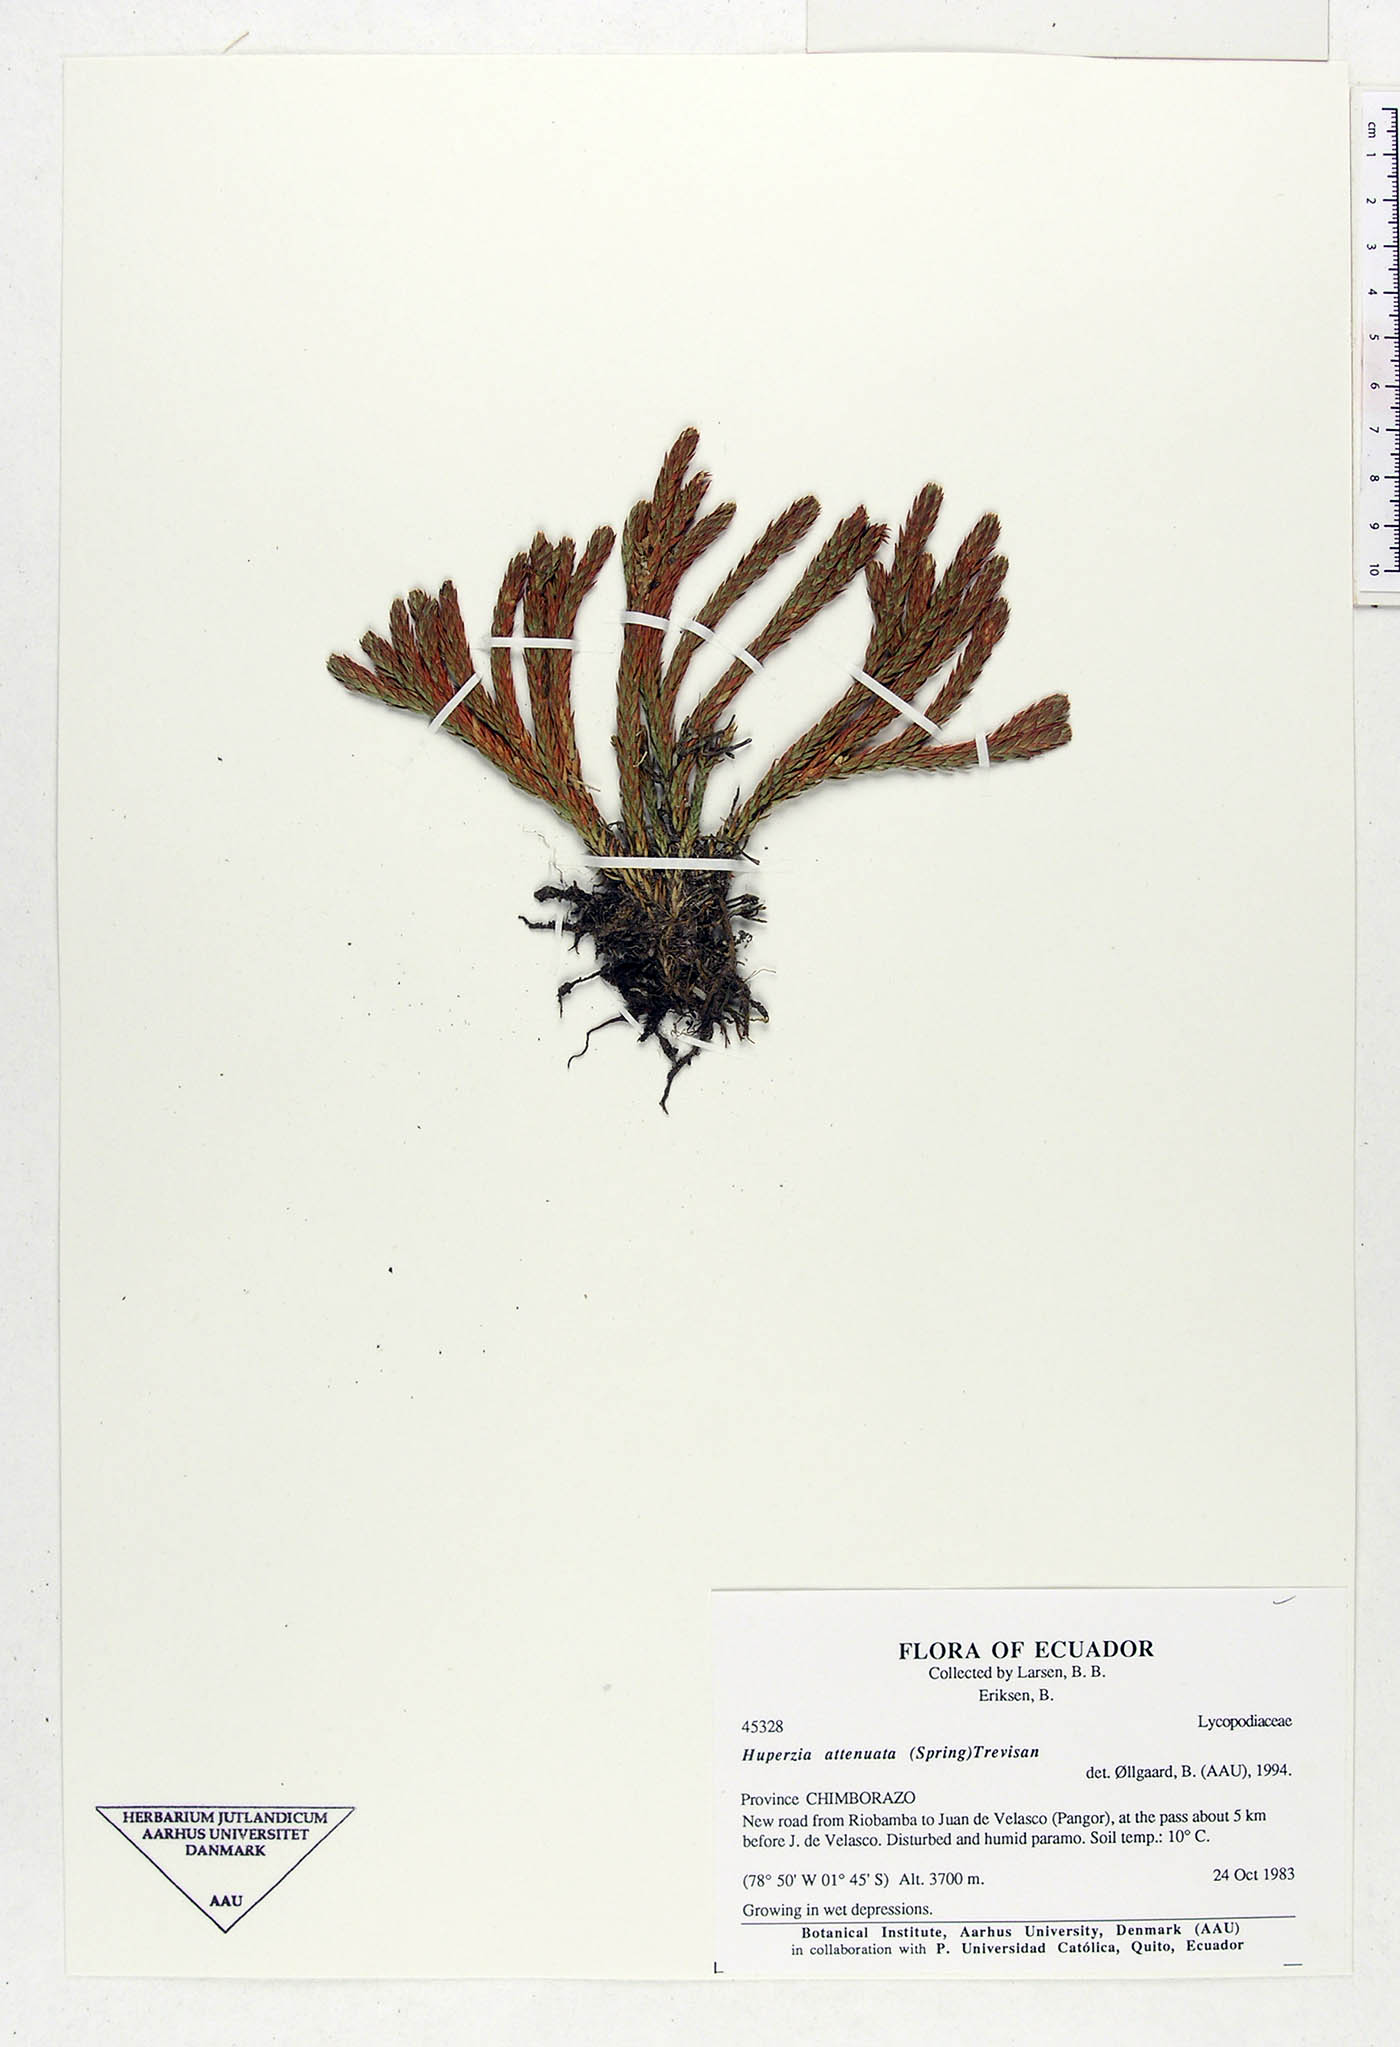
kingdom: Plantae
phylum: Tracheophyta
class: Lycopodiopsida
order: Lycopodiales
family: Lycopodiaceae
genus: Phlegmariurus
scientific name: Phlegmariurus attenuatus
